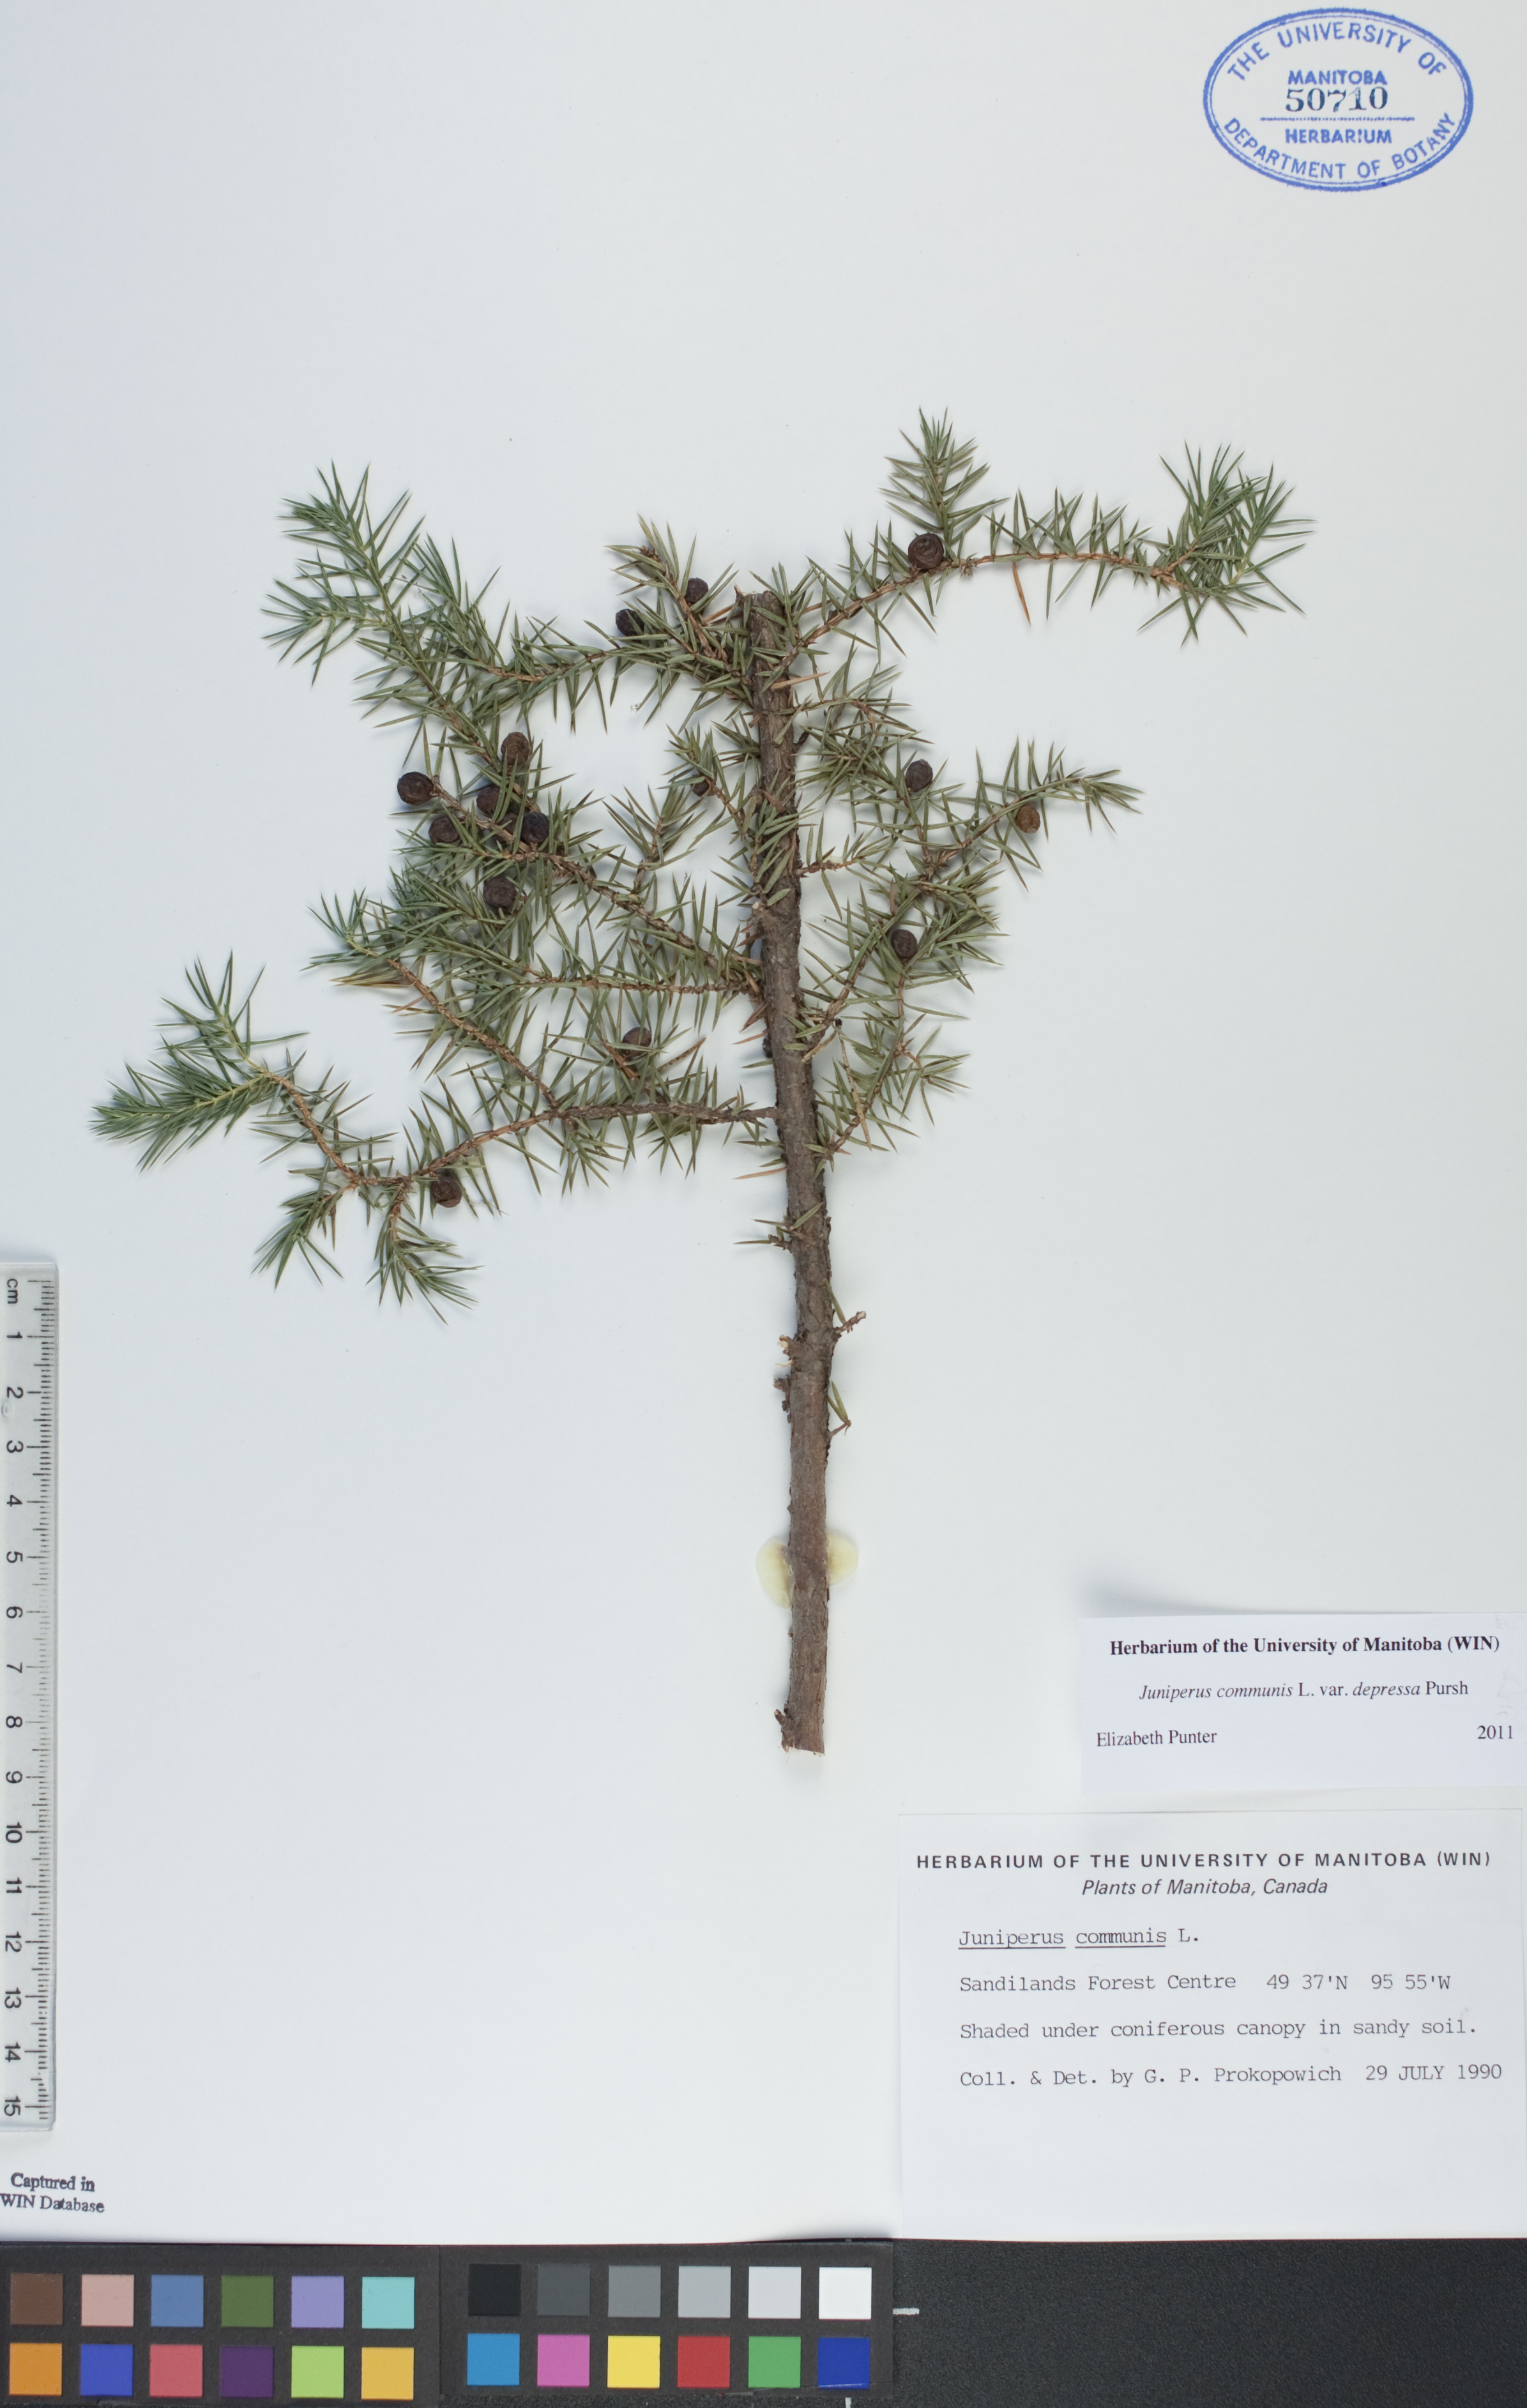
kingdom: Plantae
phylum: Tracheophyta
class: Pinopsida
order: Pinales
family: Cupressaceae
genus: Juniperus
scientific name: Juniperus communis
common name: Common juniper
